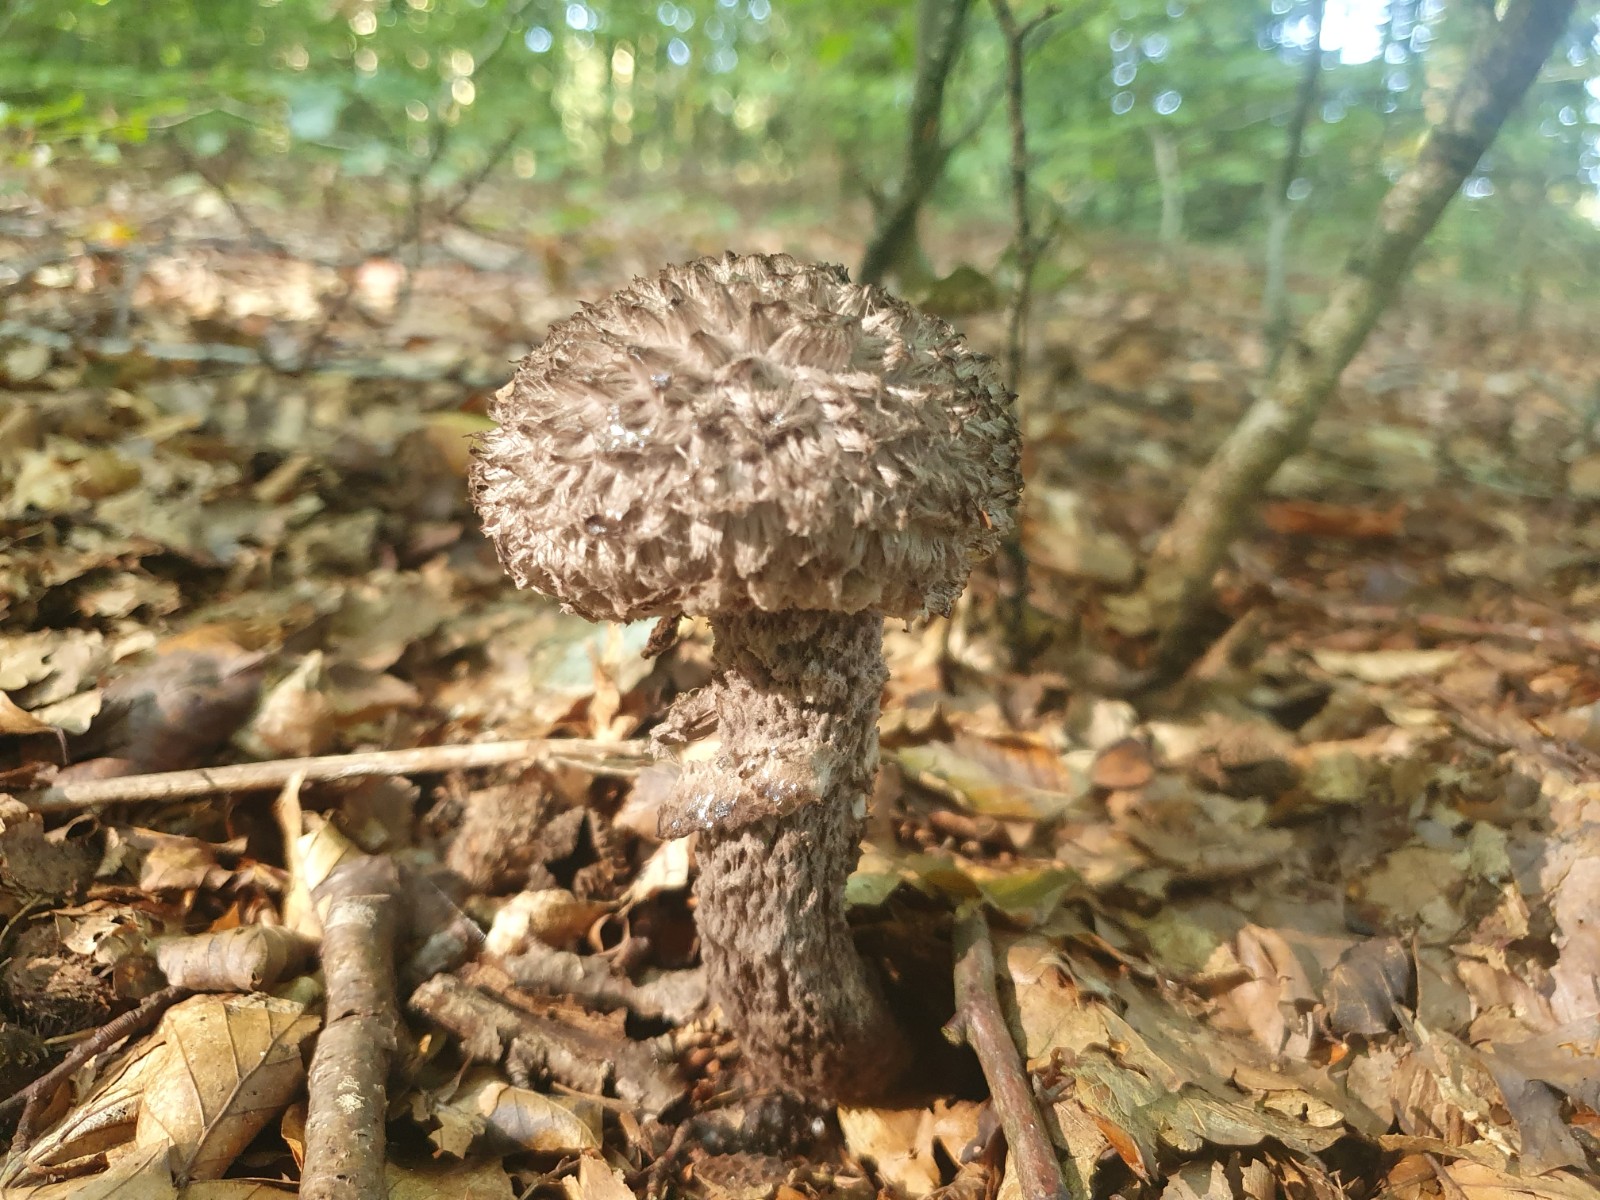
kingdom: Fungi
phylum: Basidiomycota
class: Agaricomycetes
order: Boletales
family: Boletaceae
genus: Strobilomyces
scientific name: Strobilomyces strobilaceus
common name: koglerørhat
